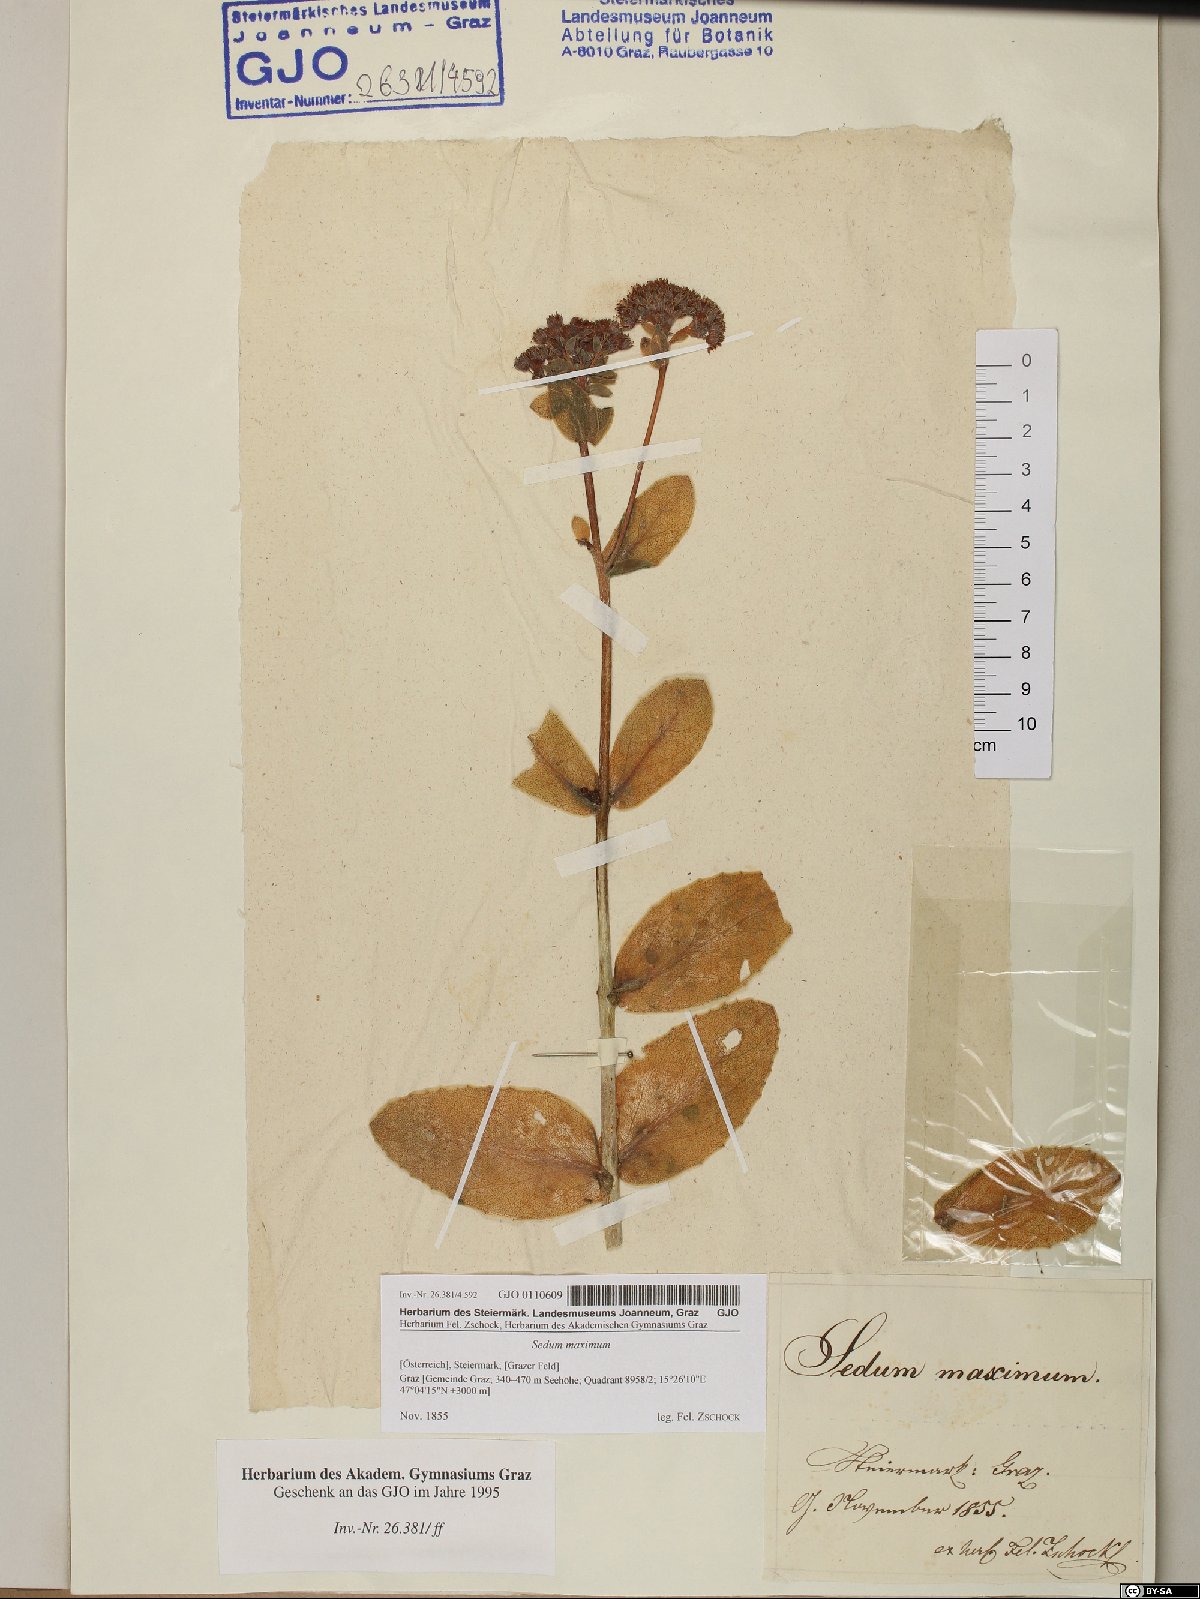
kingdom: Plantae
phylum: Tracheophyta
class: Magnoliopsida
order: Saxifragales
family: Crassulaceae
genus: Hylotelephium
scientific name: Hylotelephium maximum
